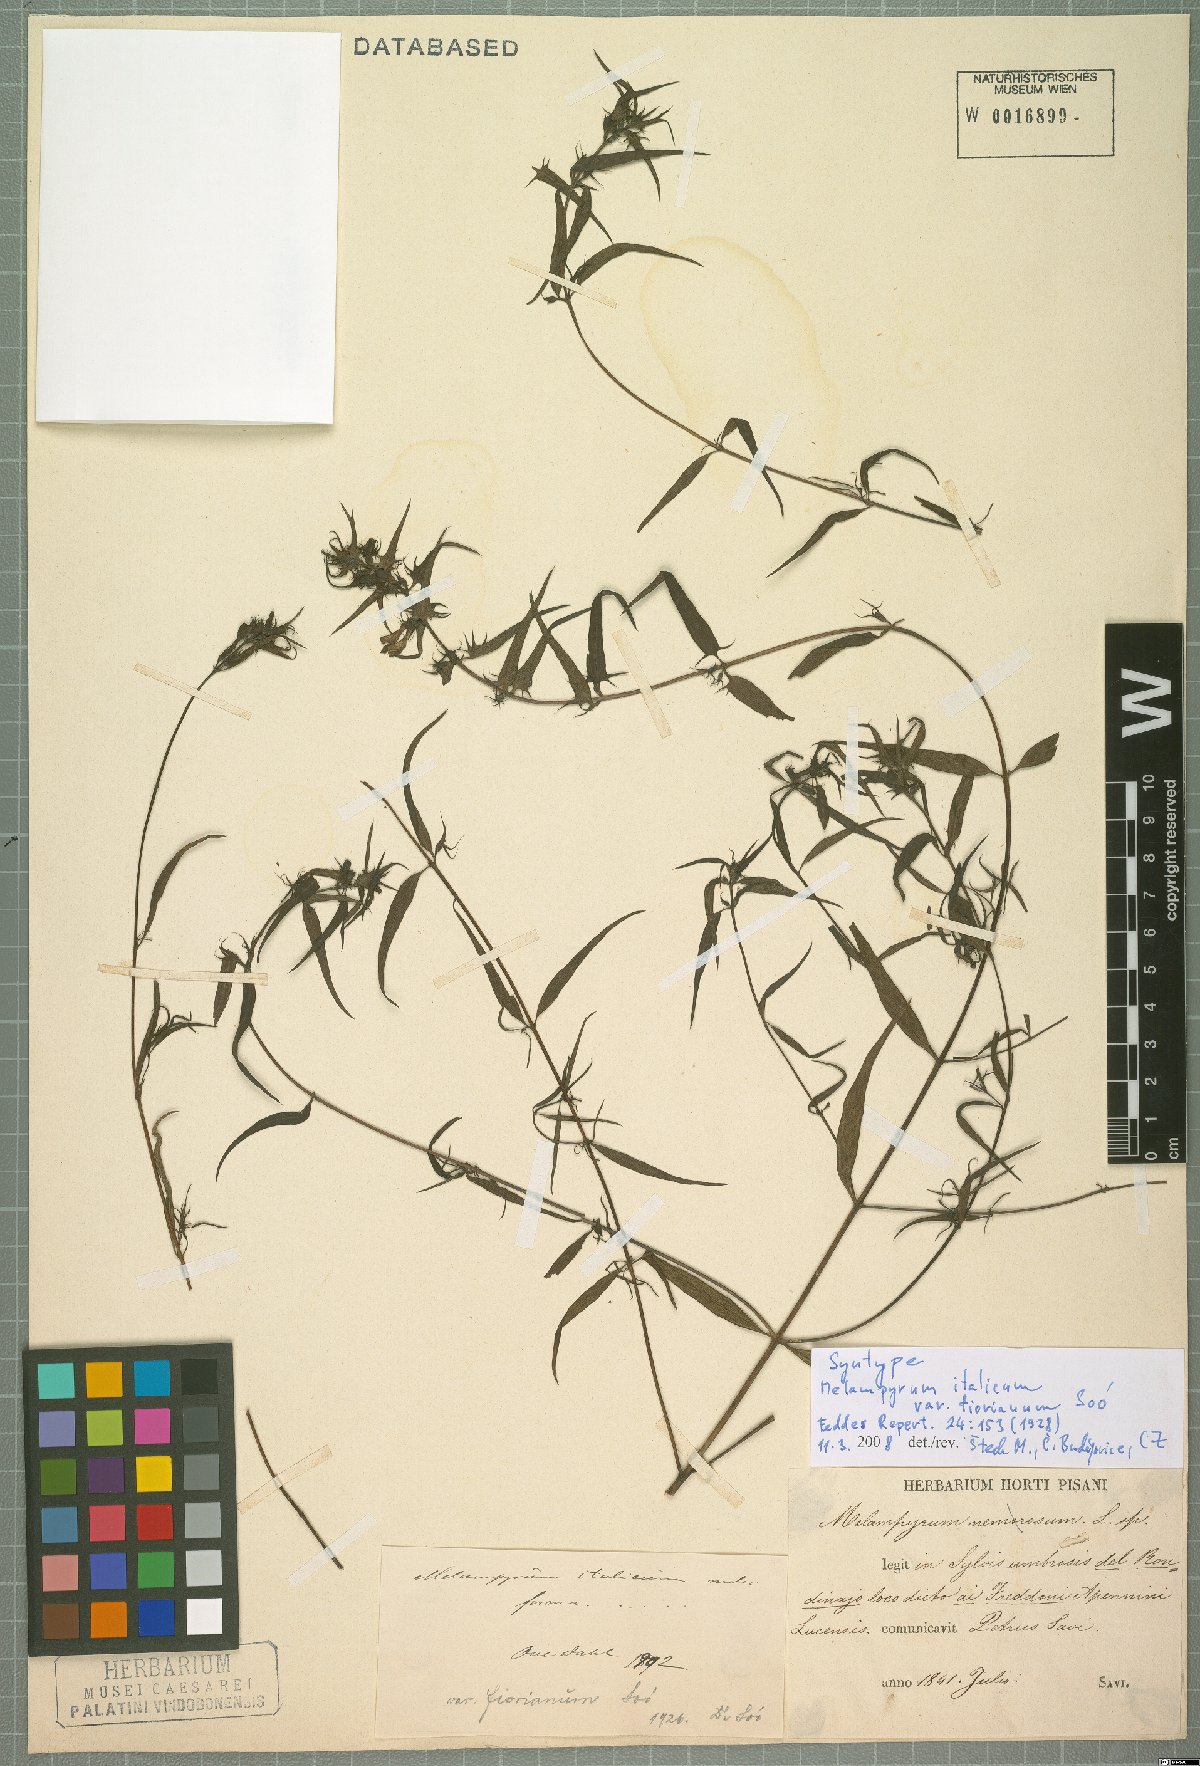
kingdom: Plantae
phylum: Tracheophyta
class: Magnoliopsida
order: Lamiales
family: Orobanchaceae
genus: Melampyrum
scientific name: Melampyrum italicum
